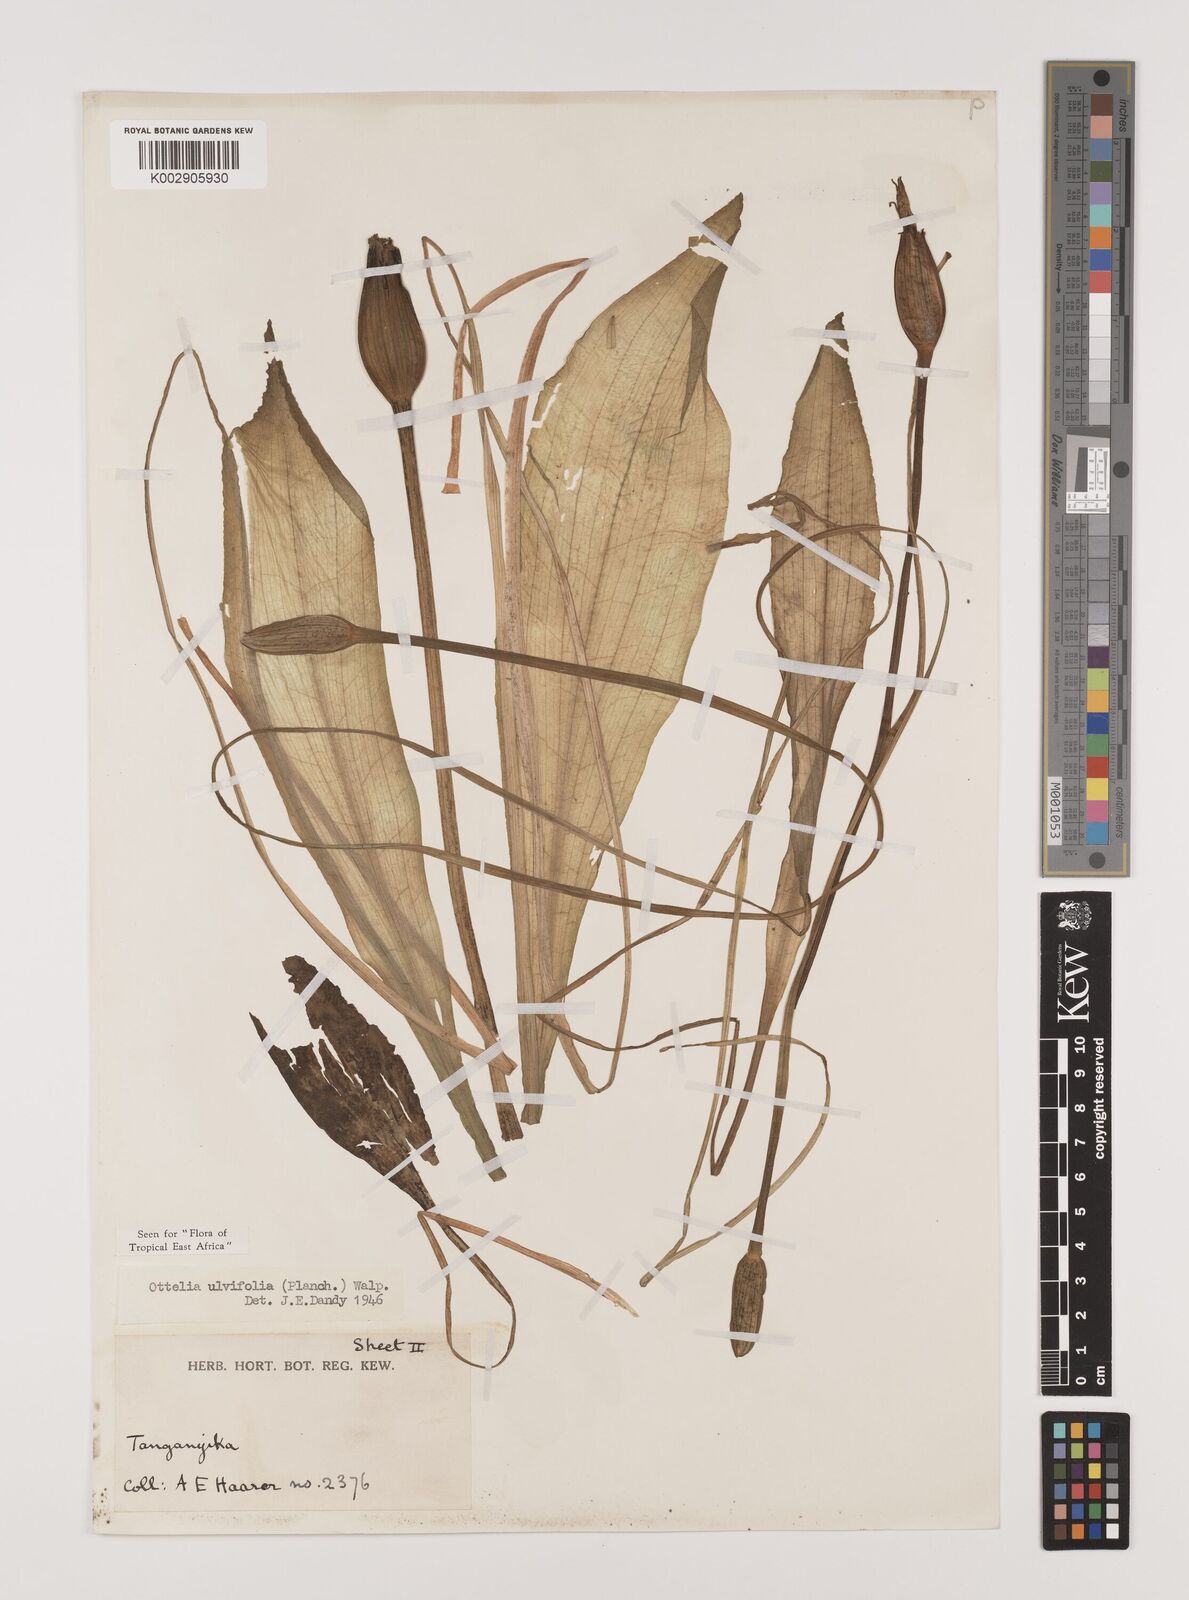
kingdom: Plantae
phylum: Tracheophyta
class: Liliopsida
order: Alismatales
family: Hydrocharitaceae
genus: Ottelia
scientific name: Ottelia ulvifolia
